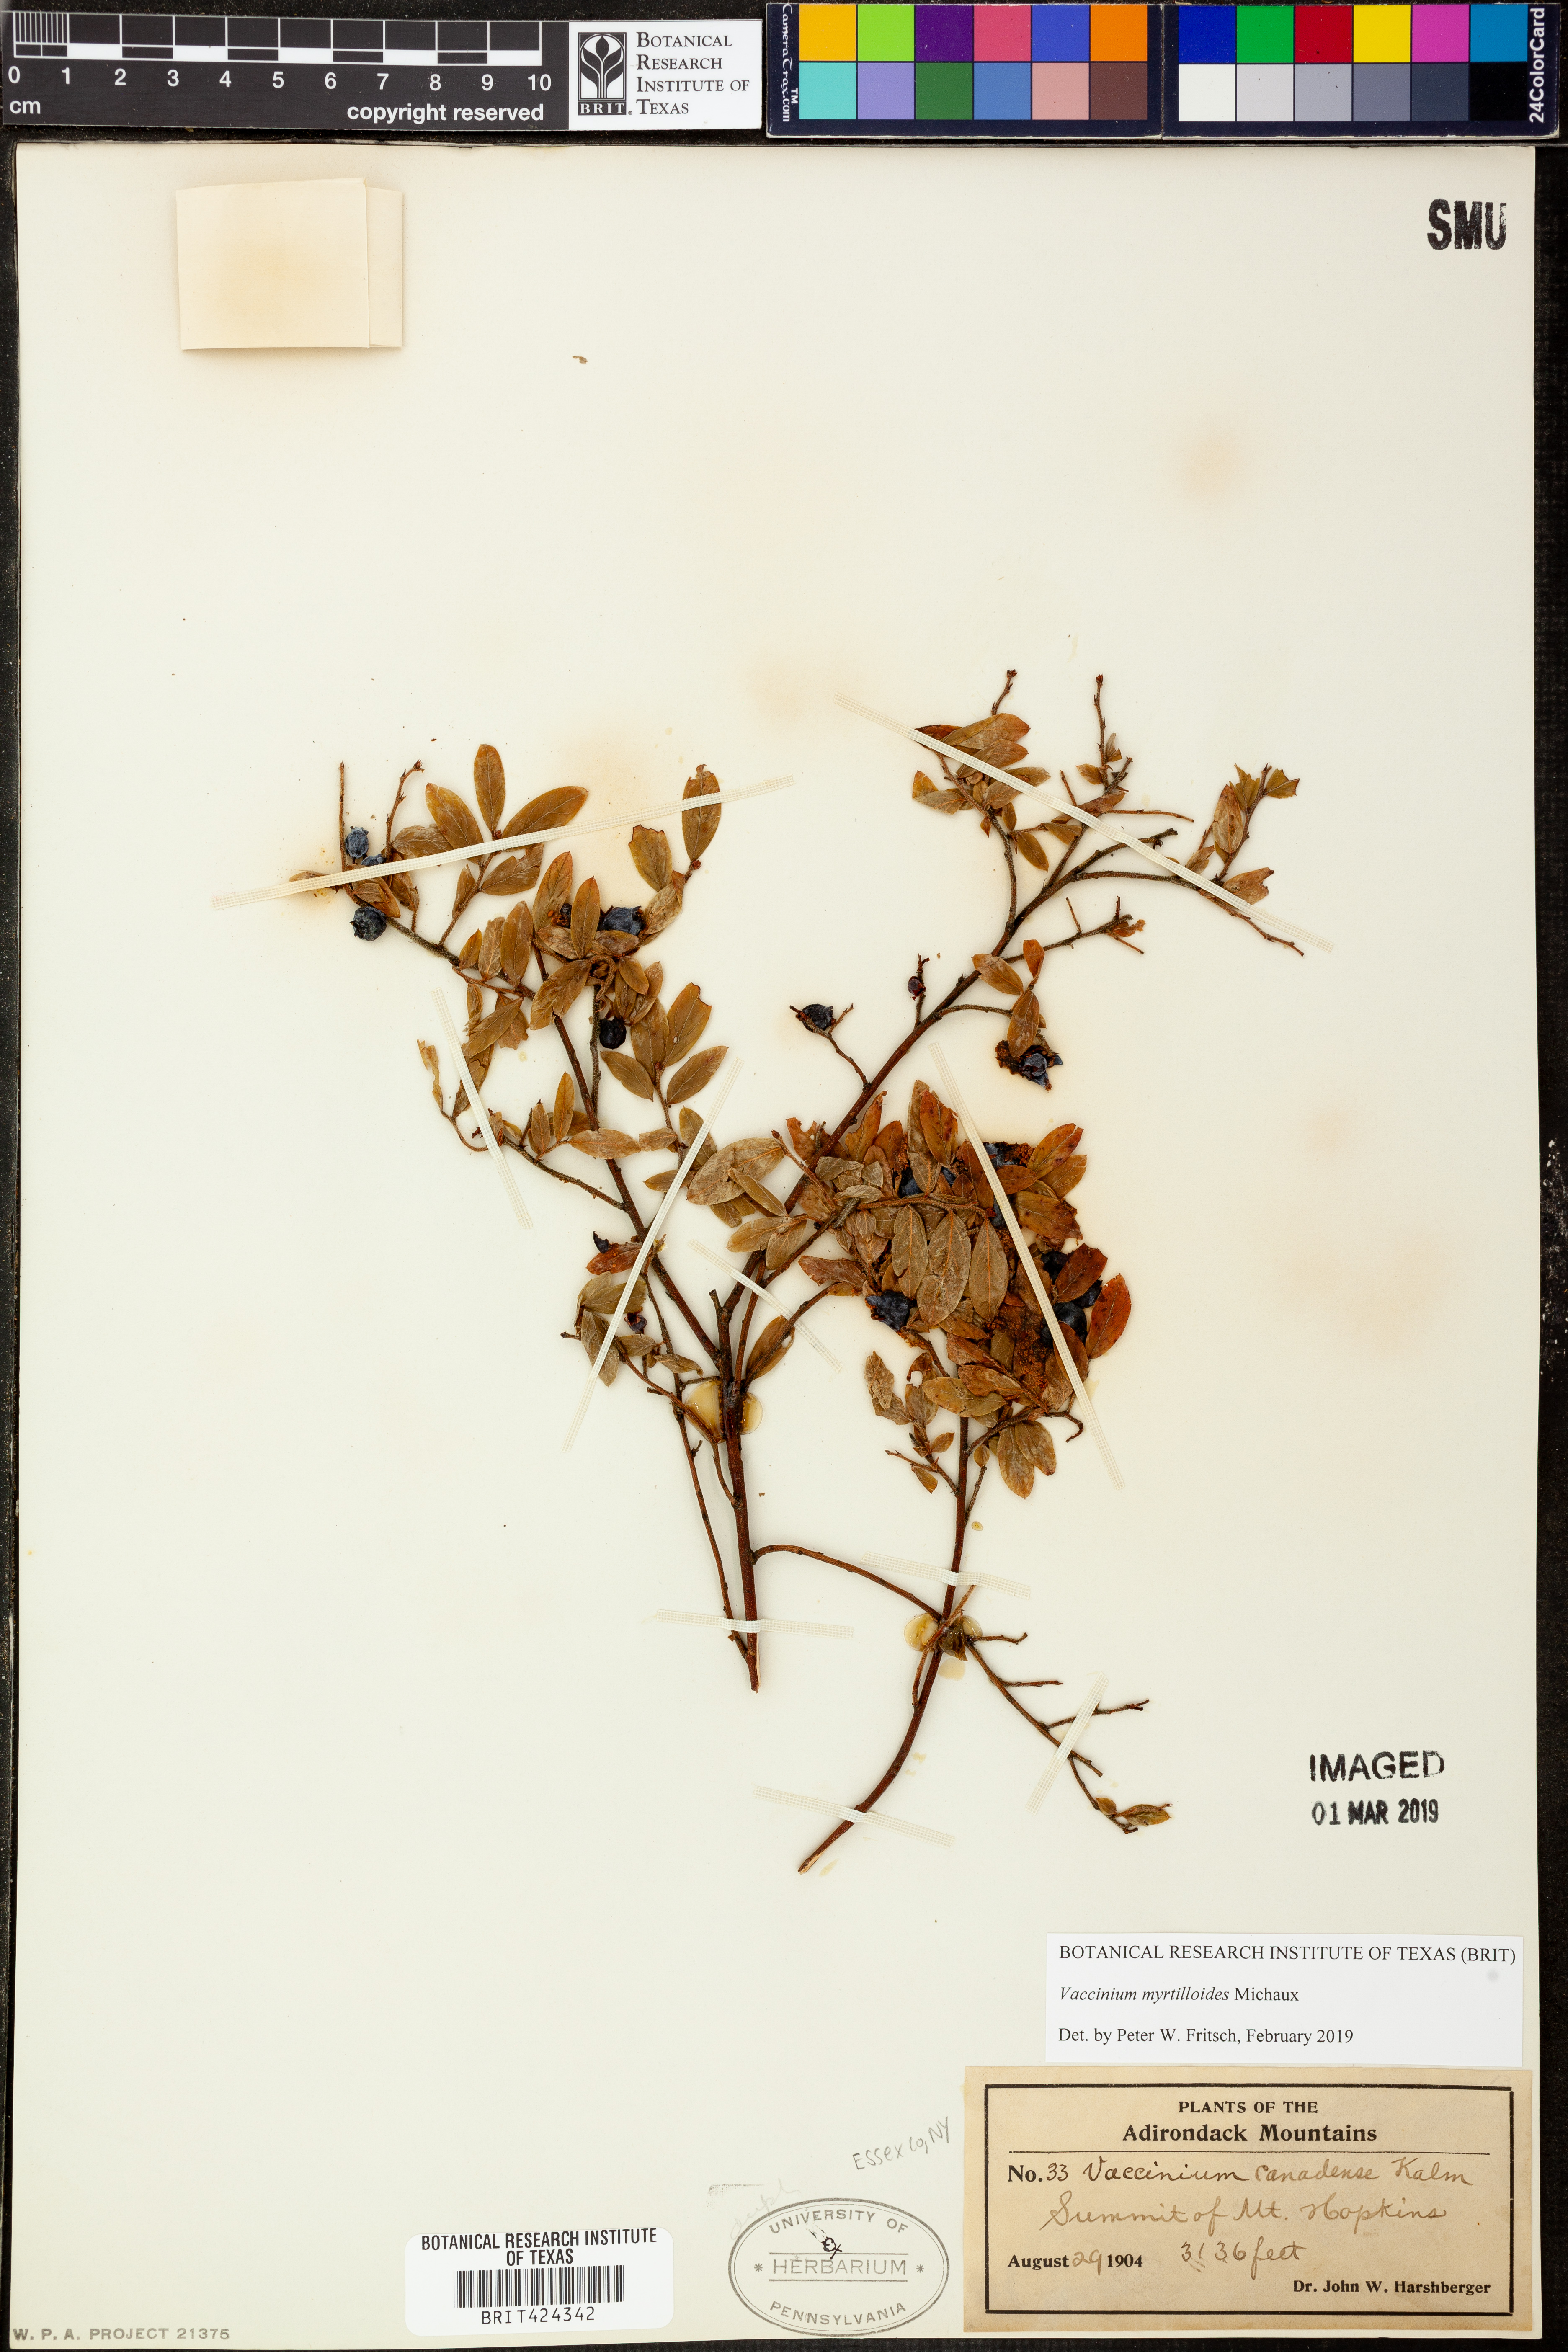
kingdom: Plantae
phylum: Tracheophyta
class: Magnoliopsida
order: Ericales
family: Ericaceae
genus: Vaccinium
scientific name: Vaccinium myrtilloides
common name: Canada blueberry
